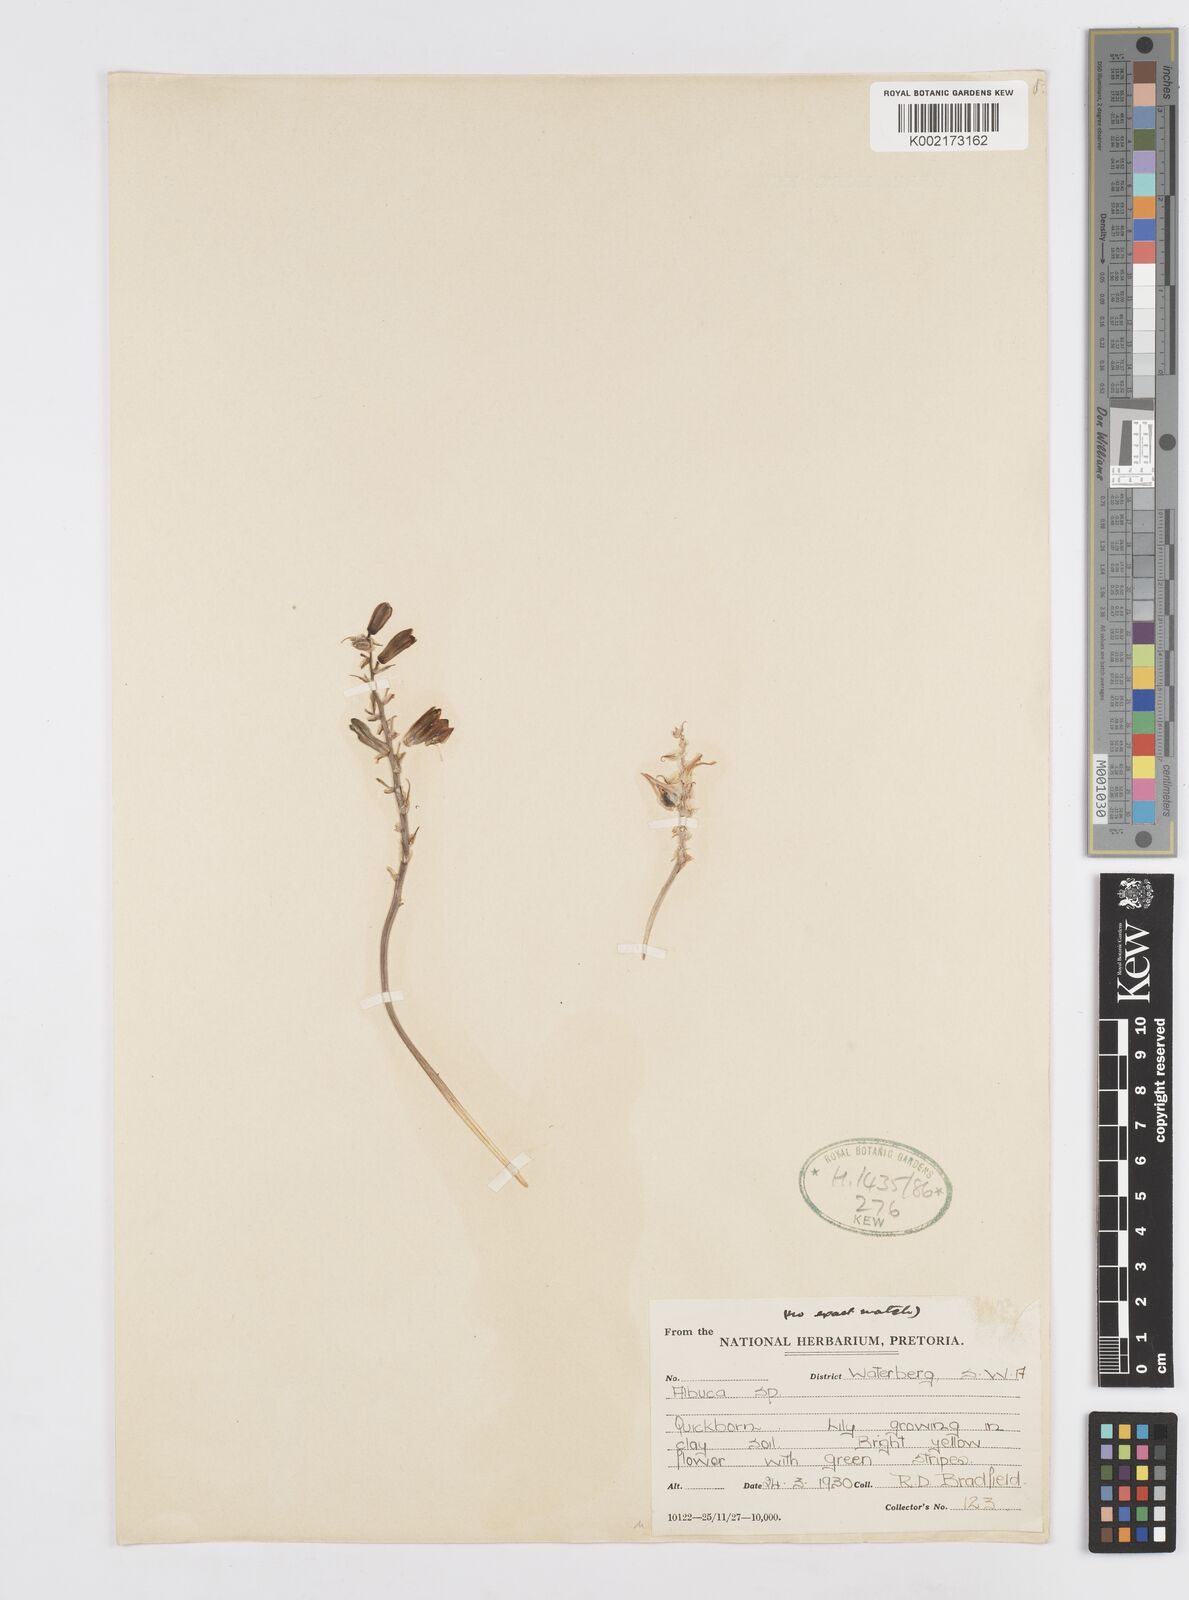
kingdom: Plantae
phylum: Tracheophyta
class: Liliopsida
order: Asparagales
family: Asparagaceae
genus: Albuca
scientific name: Albuca
